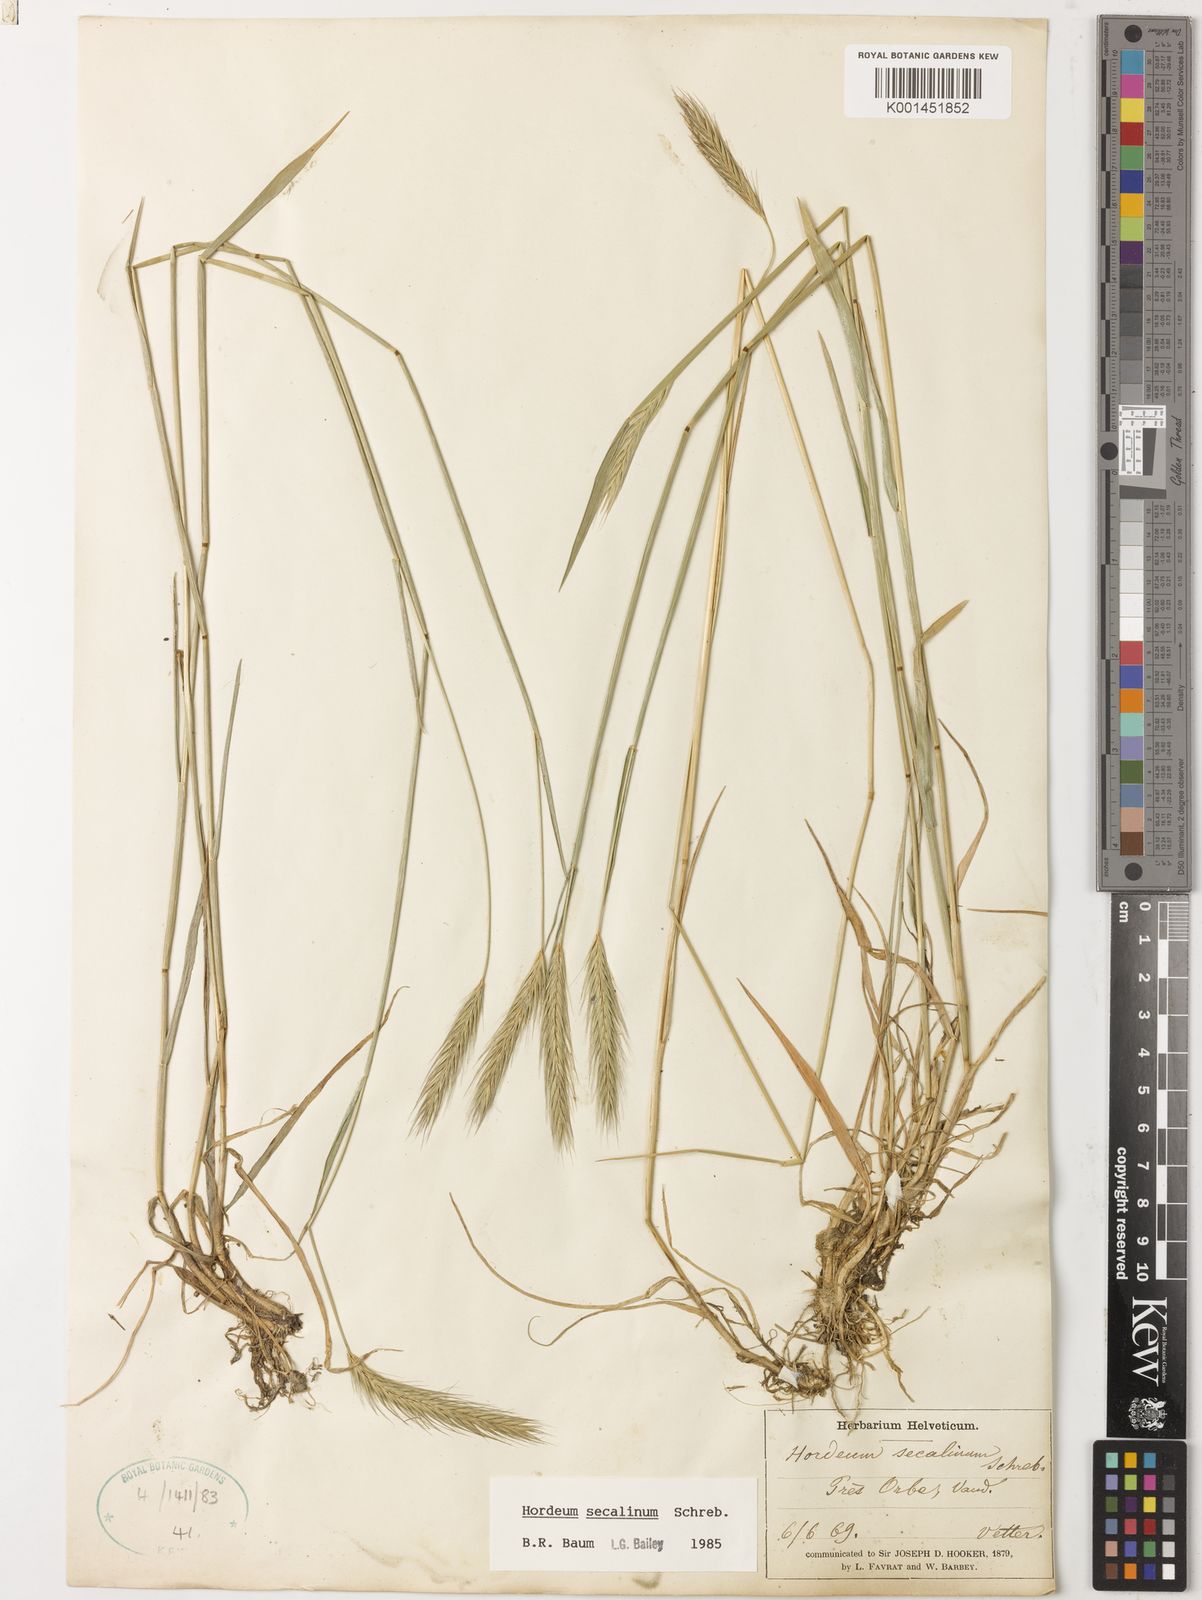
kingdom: Plantae
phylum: Tracheophyta
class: Liliopsida
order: Poales
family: Poaceae
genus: Hordeum
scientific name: Hordeum secalinum
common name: Meadow barley
